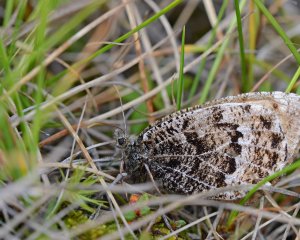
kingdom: Animalia
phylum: Arthropoda
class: Insecta
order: Lepidoptera
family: Nymphalidae
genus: Oeneis
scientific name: Oeneis bore
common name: White-veined Arctic
